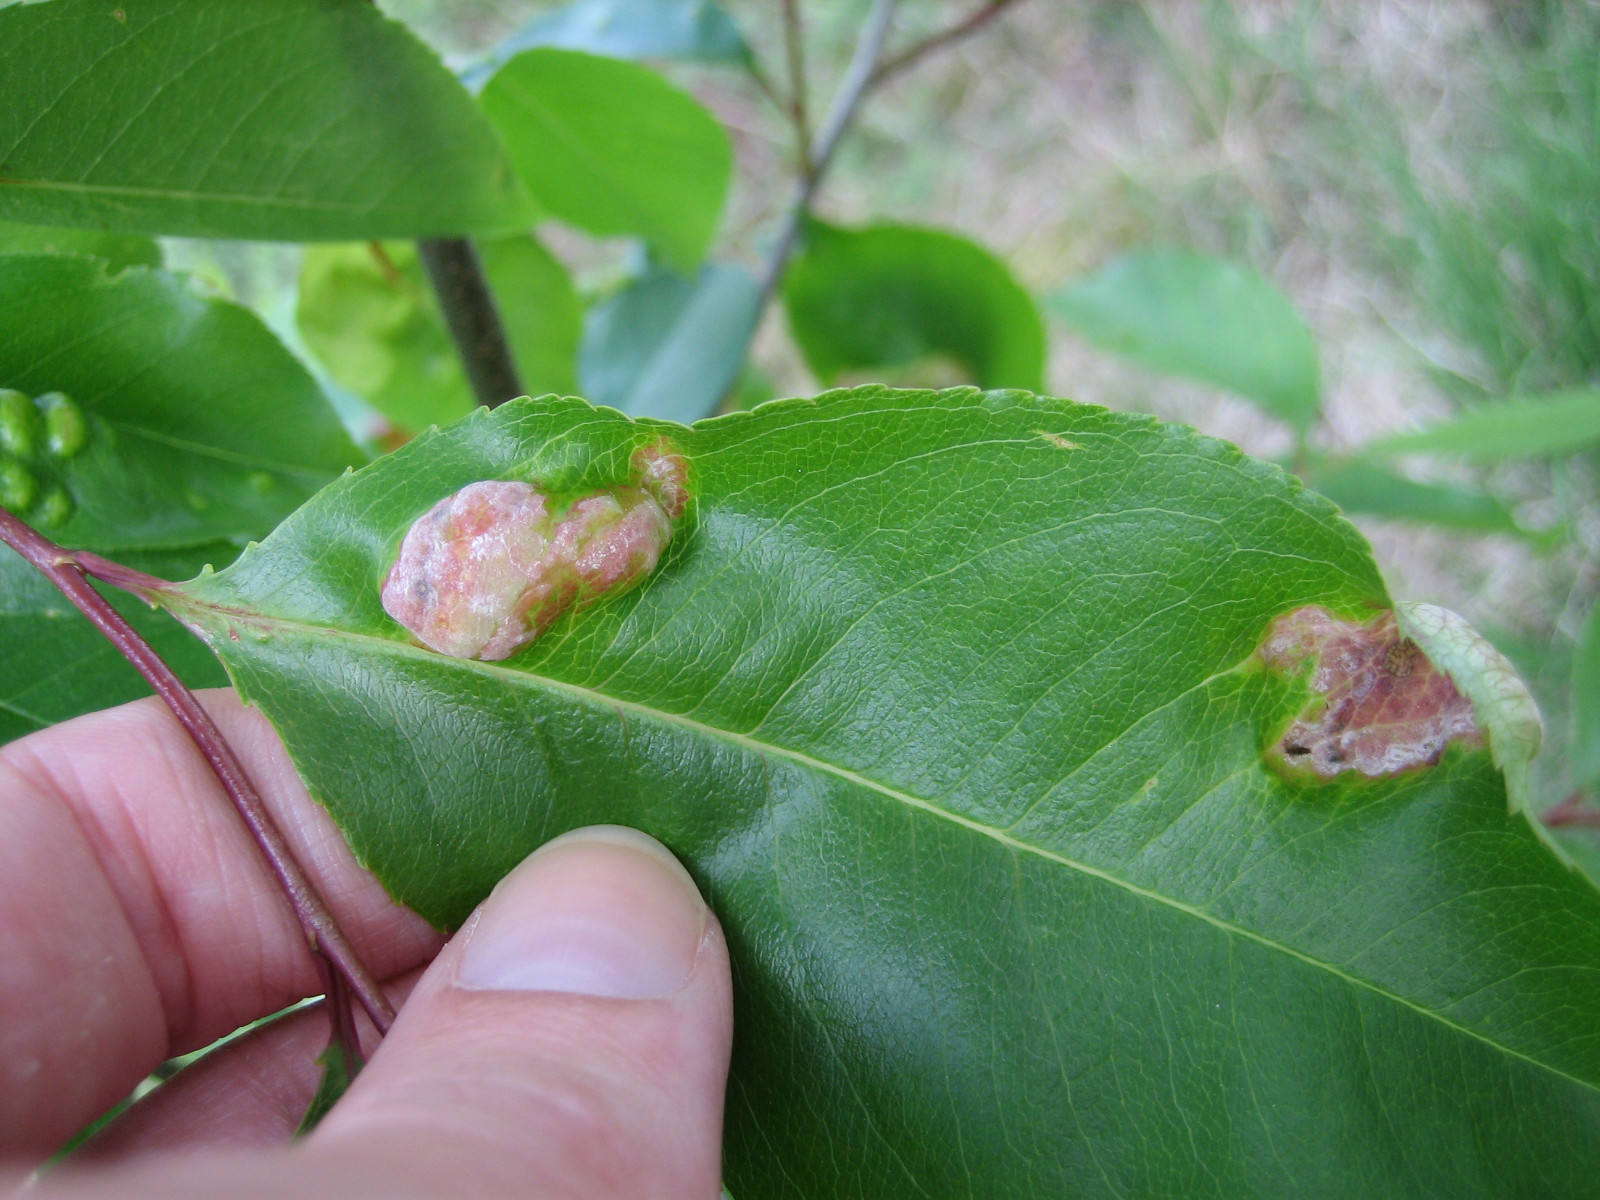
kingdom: Fungi
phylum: Ascomycota
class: Taphrinomycetes
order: Taphrinales
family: Taphrinaceae
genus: Taphrina
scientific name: Taphrina farlowii
